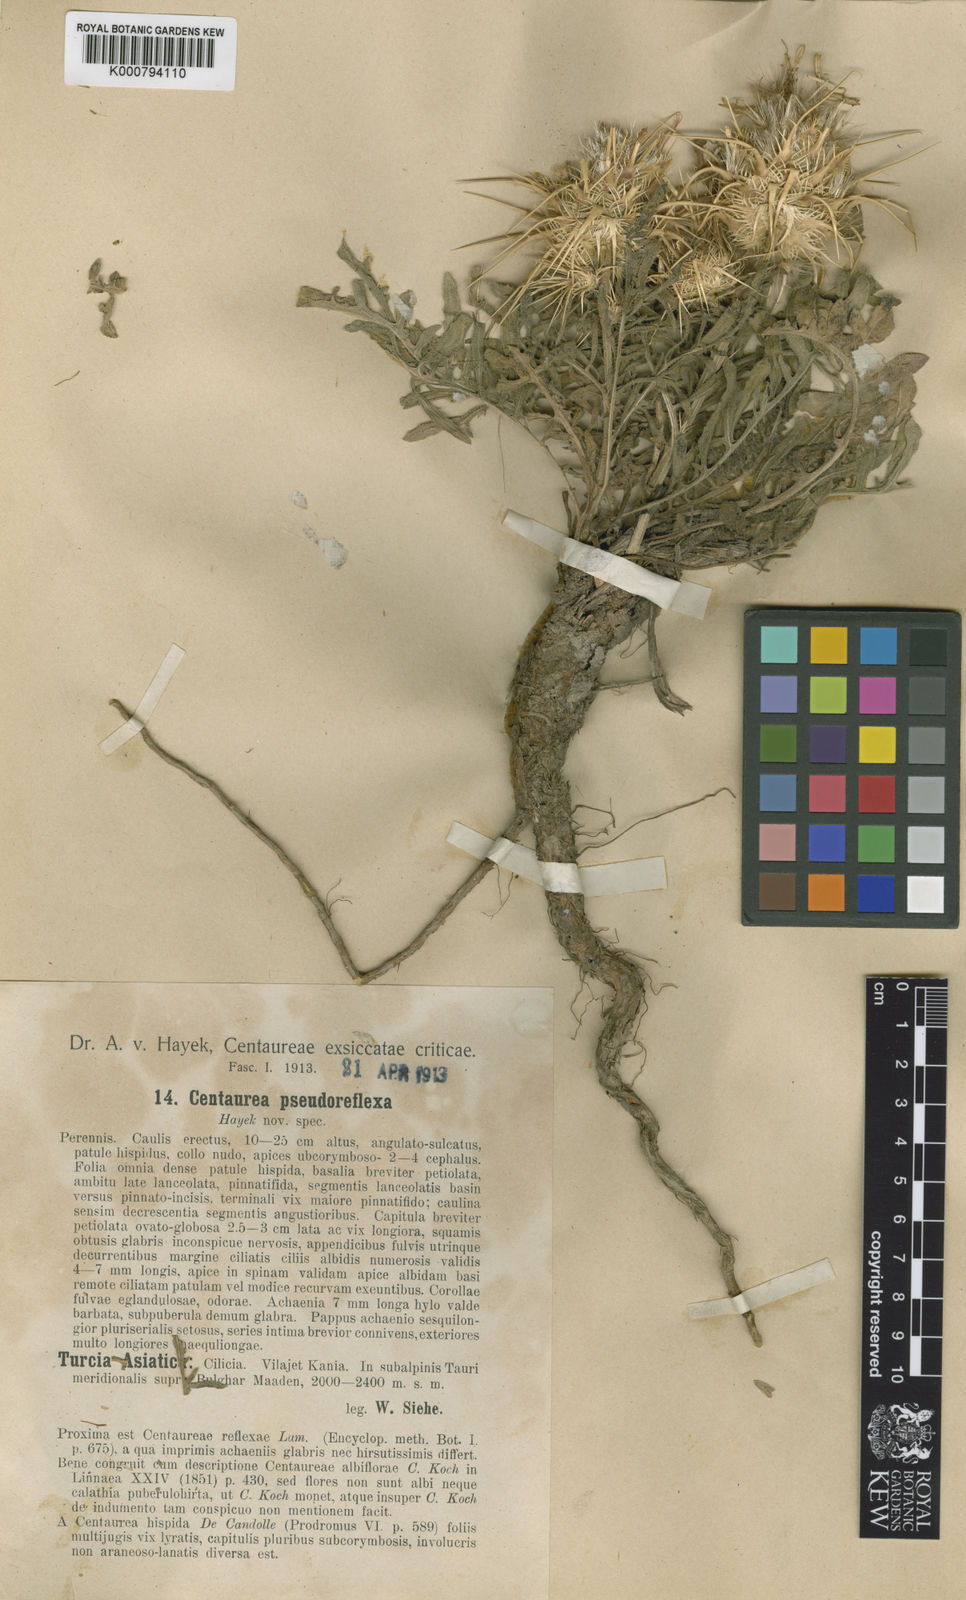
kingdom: Plantae
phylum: Tracheophyta
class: Magnoliopsida
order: Asterales
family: Asteraceae
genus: Centaurea
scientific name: Centaurea pseudreflexa
